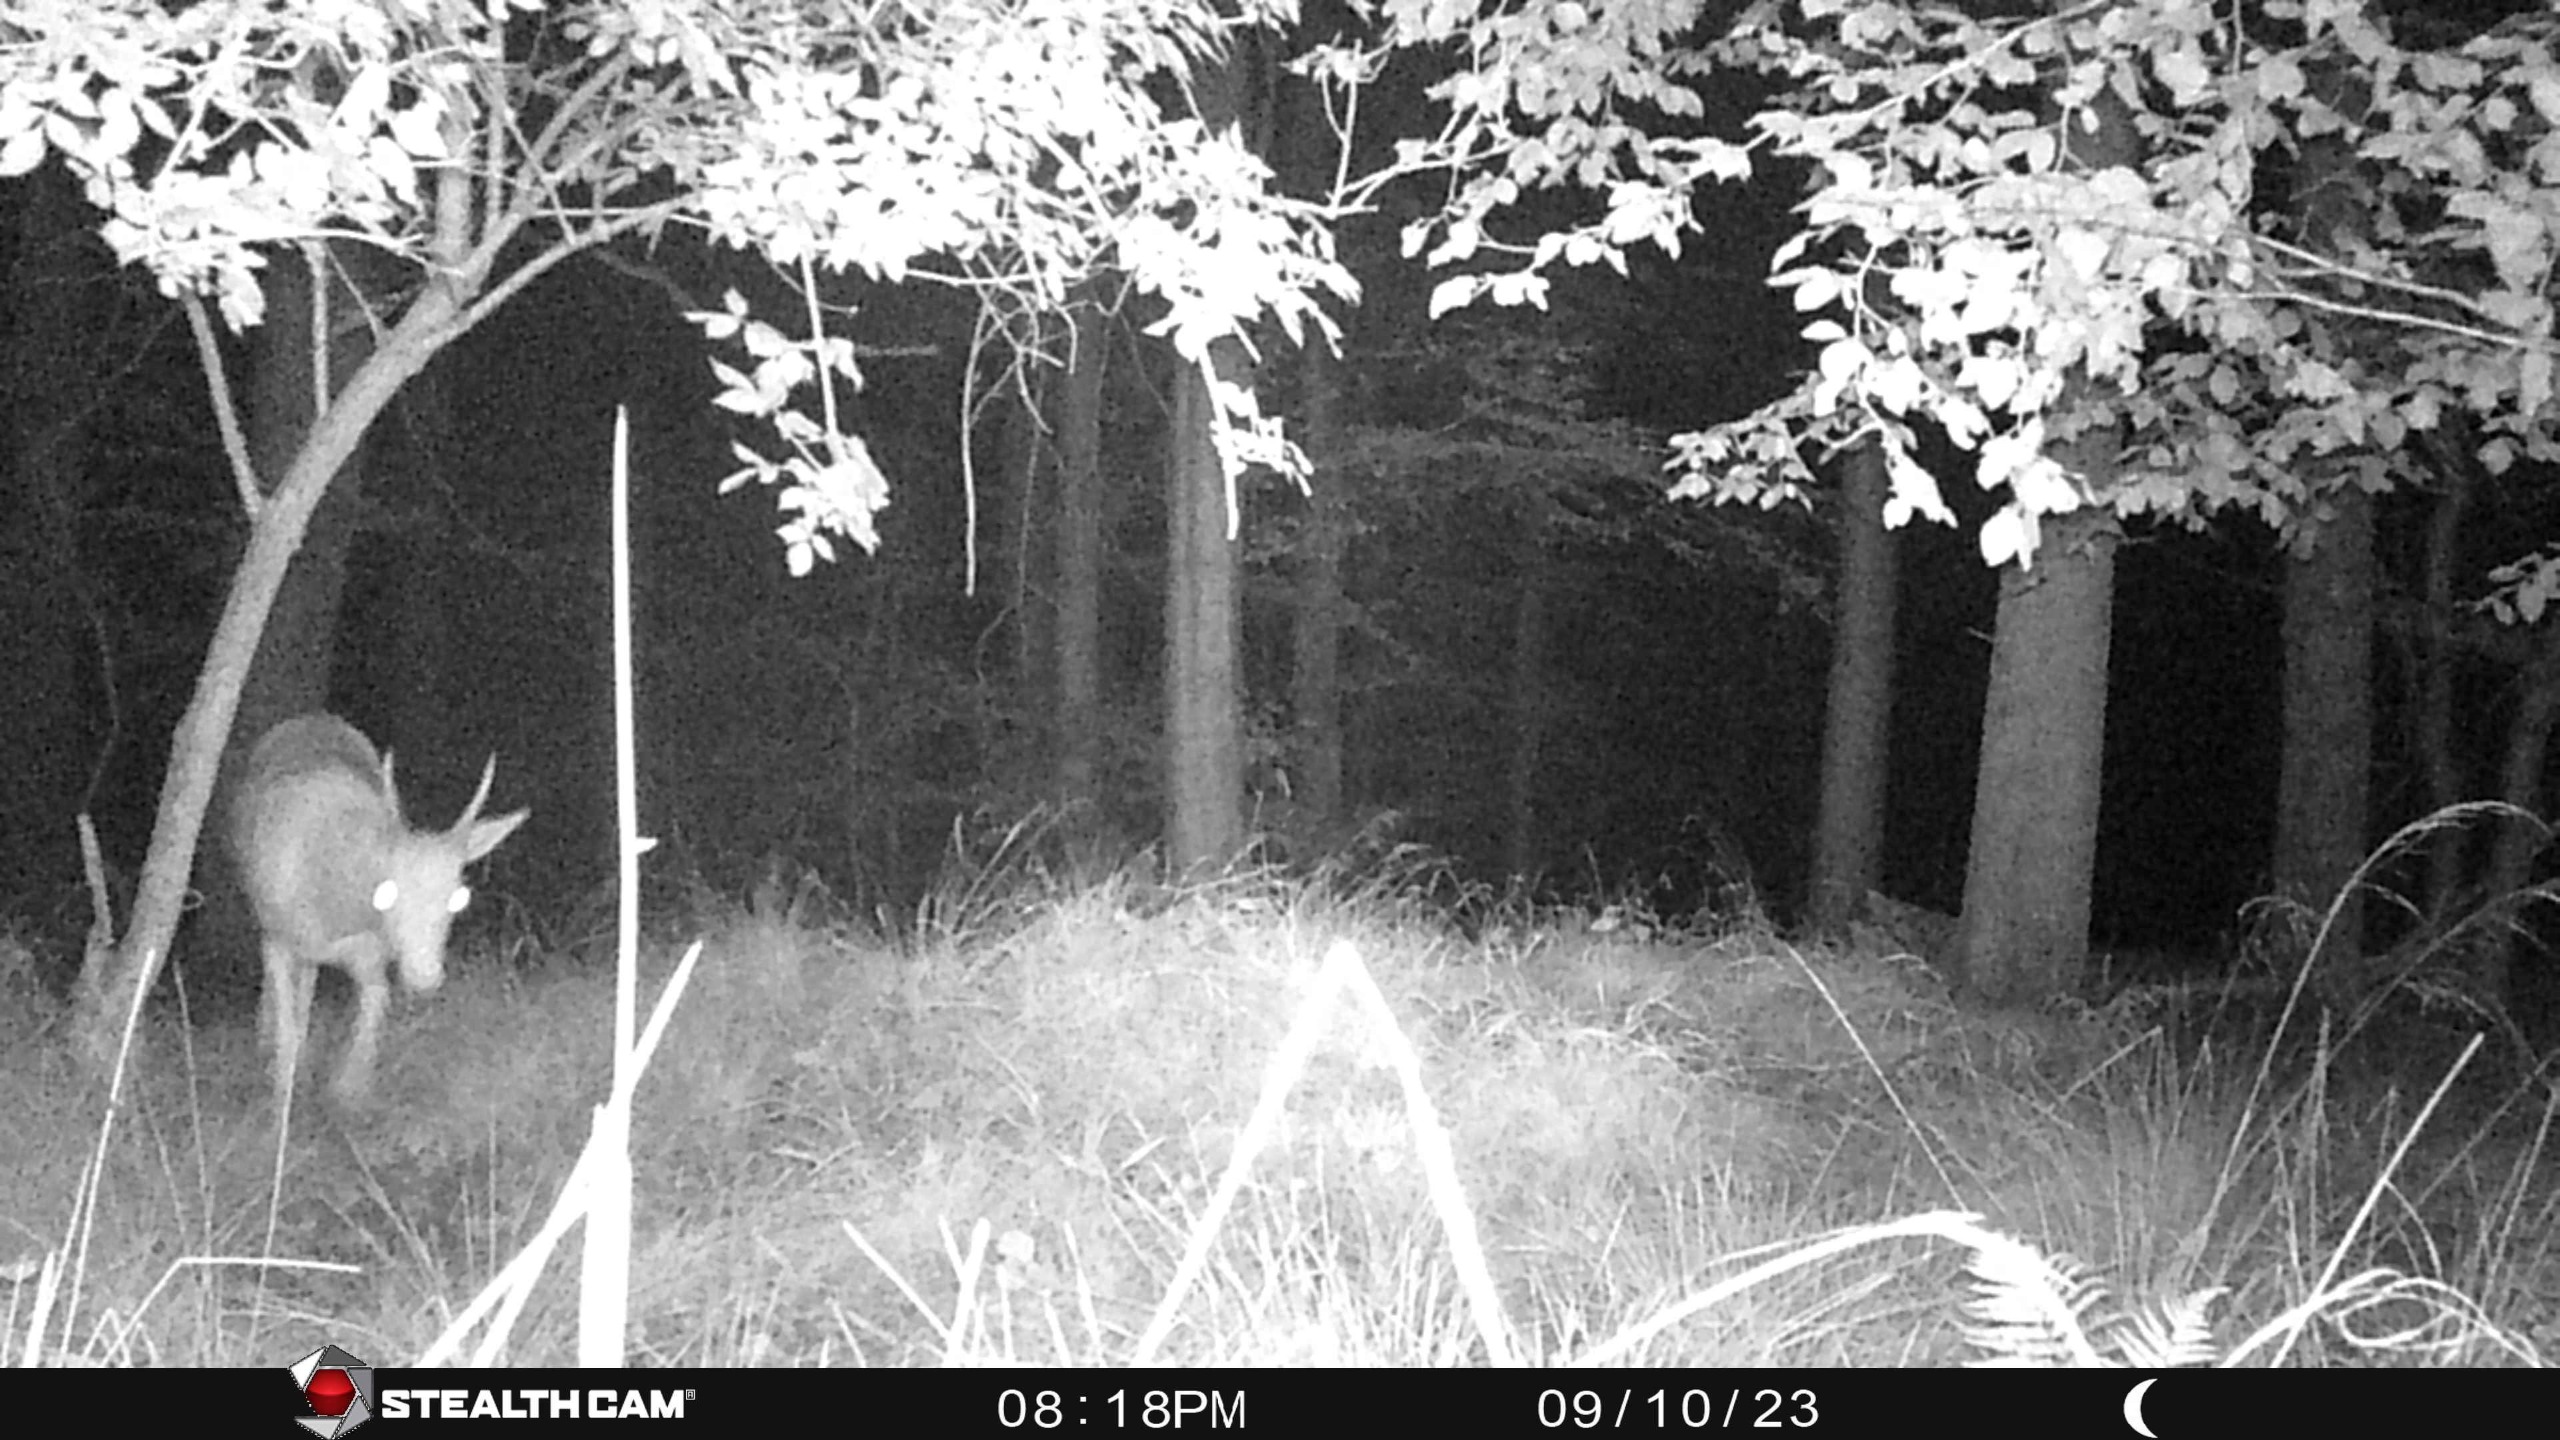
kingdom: Animalia
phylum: Chordata
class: Mammalia
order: Artiodactyla
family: Cervidae
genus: Dama
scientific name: Dama dama
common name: Dådyr
